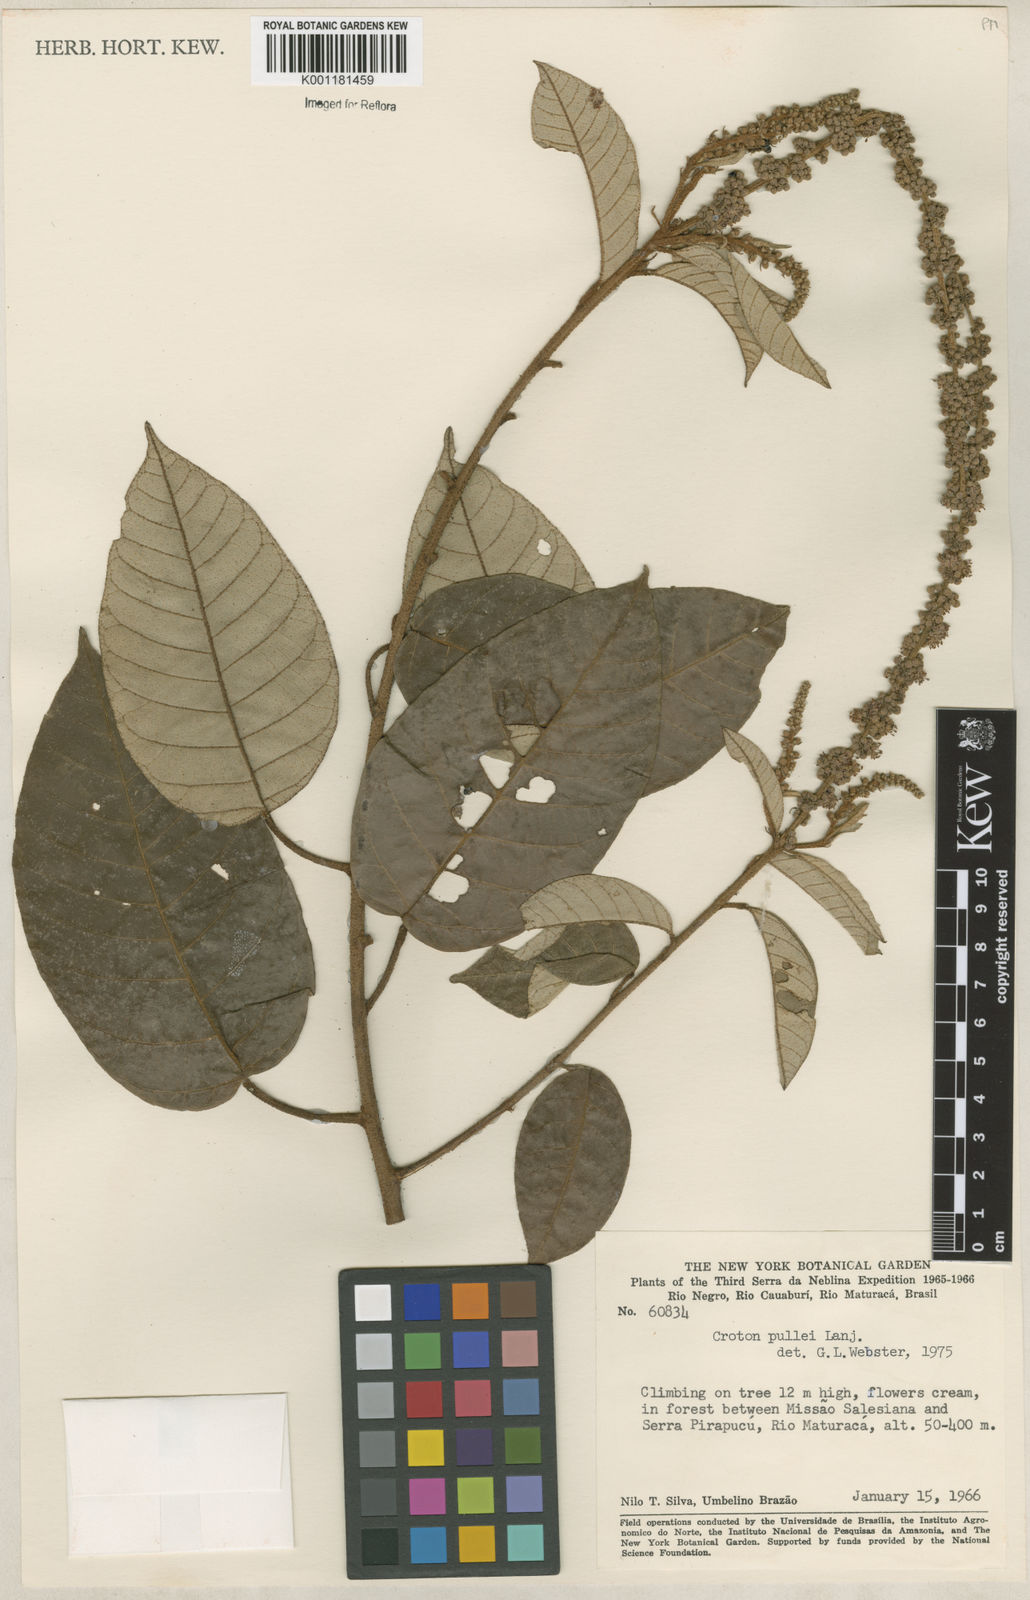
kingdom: Plantae
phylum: Tracheophyta
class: Magnoliopsida
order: Malpighiales
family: Euphorbiaceae
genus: Croton
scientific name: Croton pullei
